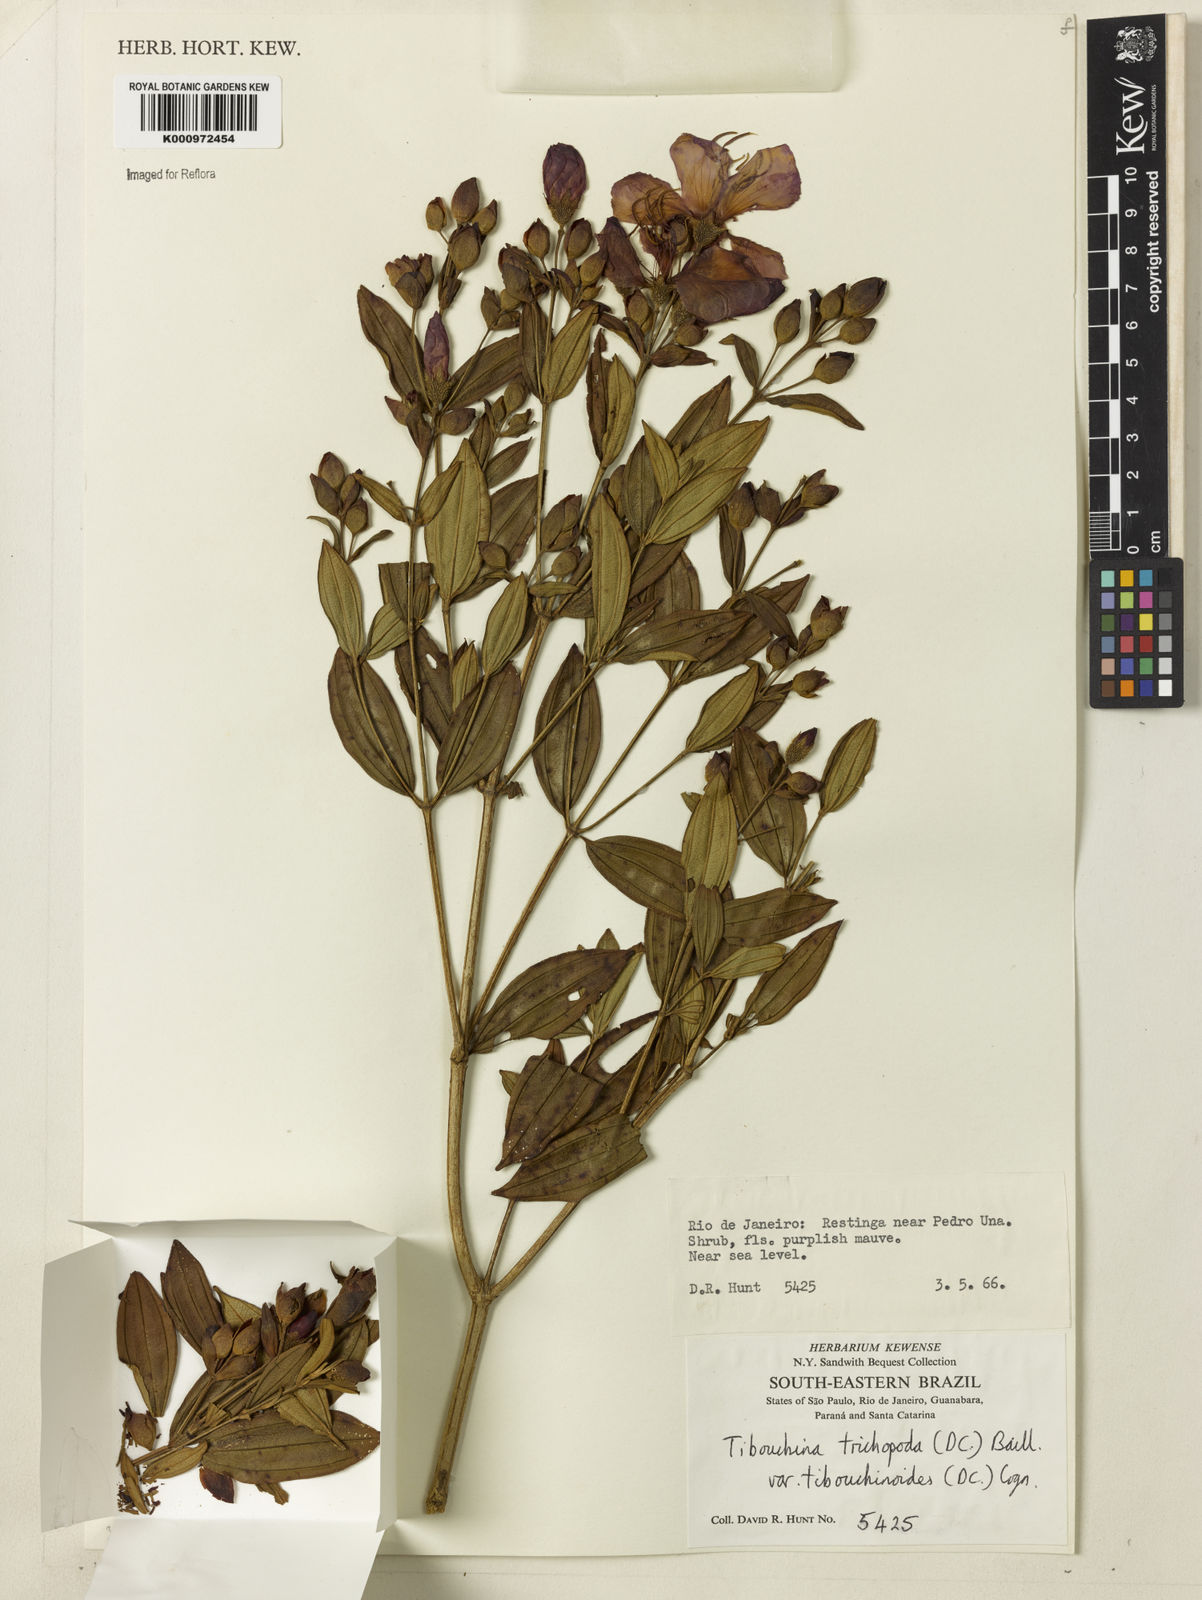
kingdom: Plantae
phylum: Tracheophyta
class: Magnoliopsida
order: Myrtales
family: Melastomataceae
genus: Pleroma
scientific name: Pleroma trichopodum
